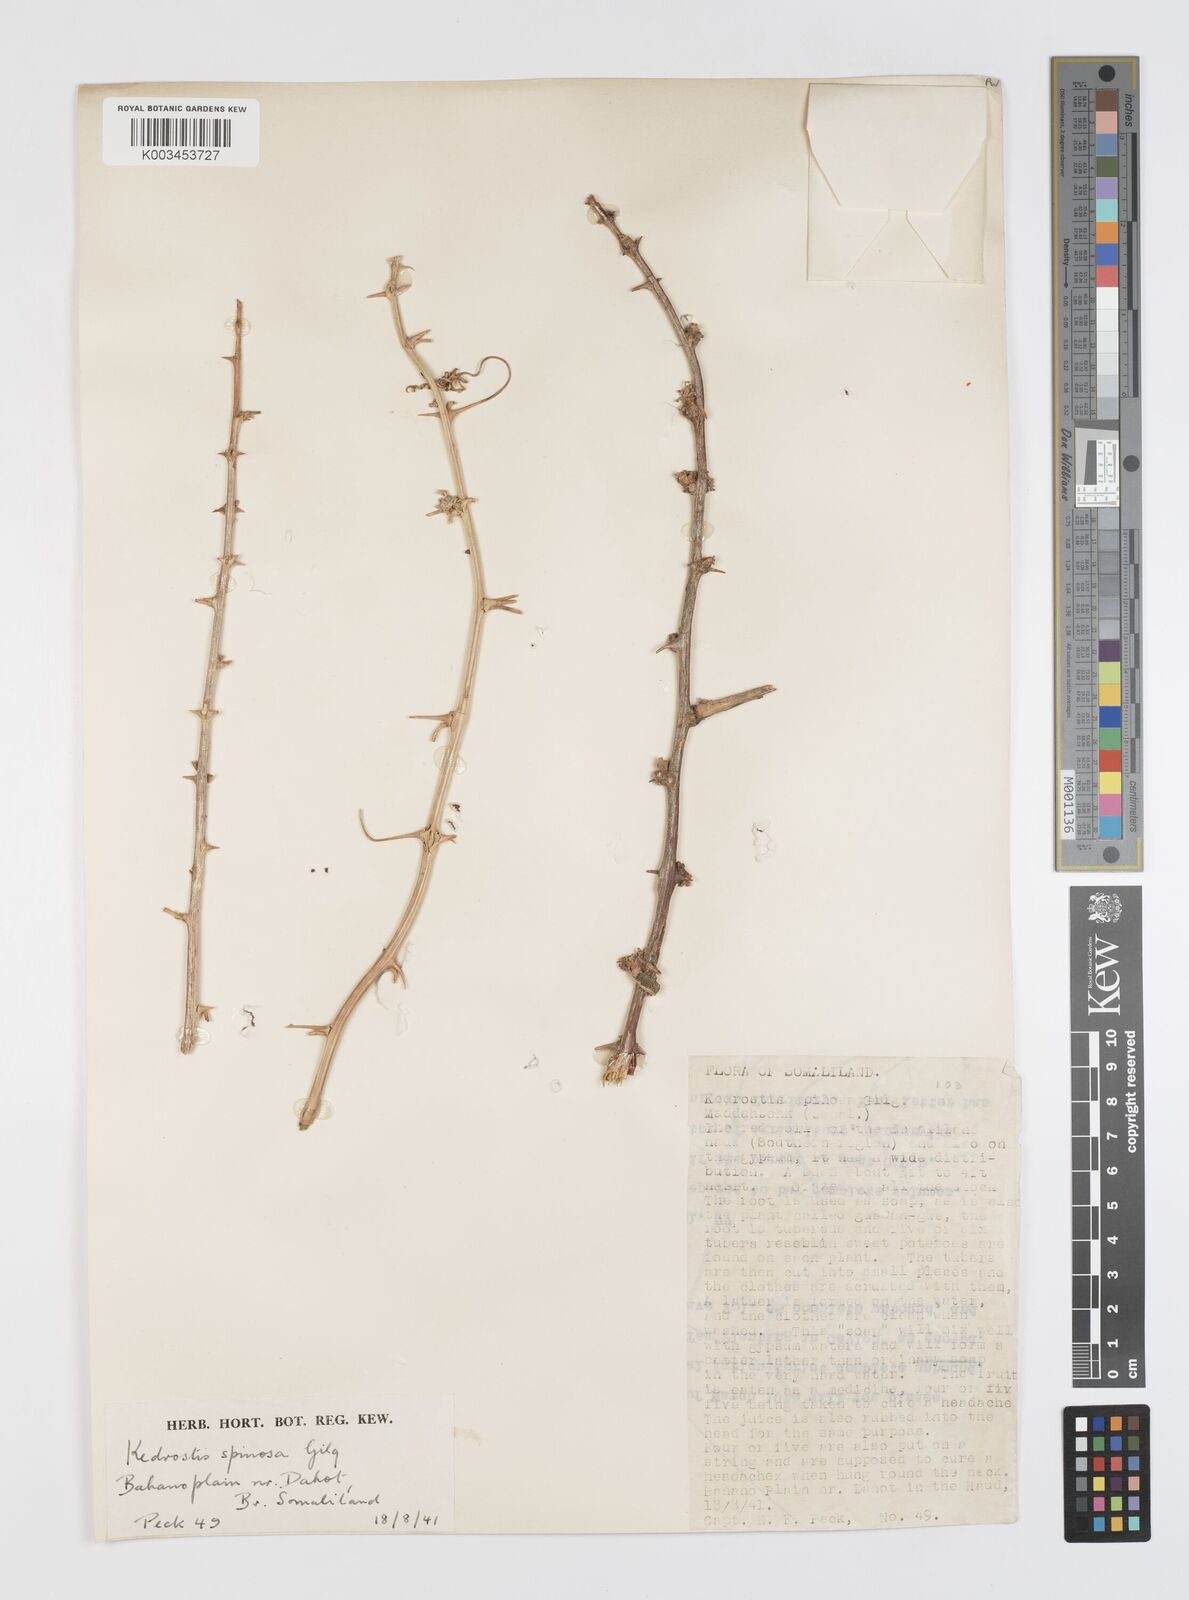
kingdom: Plantae
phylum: Tracheophyta
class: Magnoliopsida
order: Cucurbitales
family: Cucurbitaceae
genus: Momordica
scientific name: Momordica spinosa
